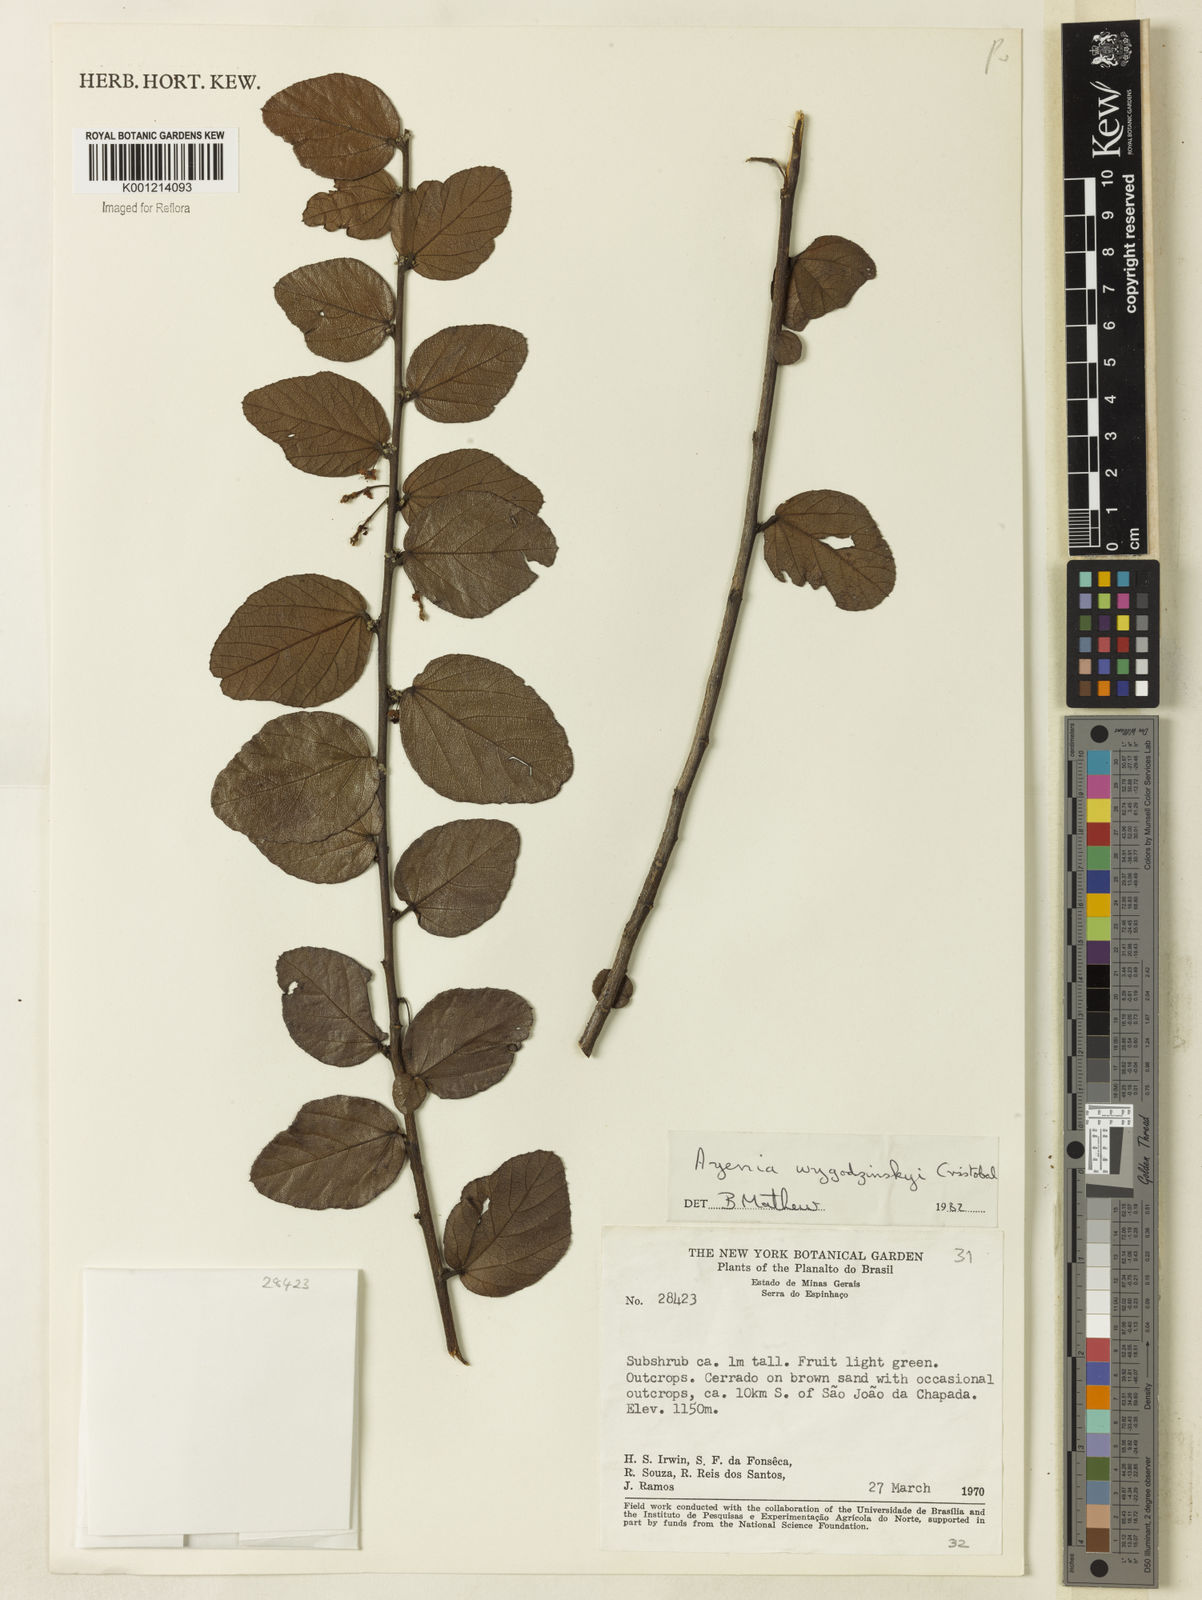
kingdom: Plantae
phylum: Tracheophyta
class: Magnoliopsida
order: Malvales
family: Malvaceae
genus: Ayenia
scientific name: Ayenia
